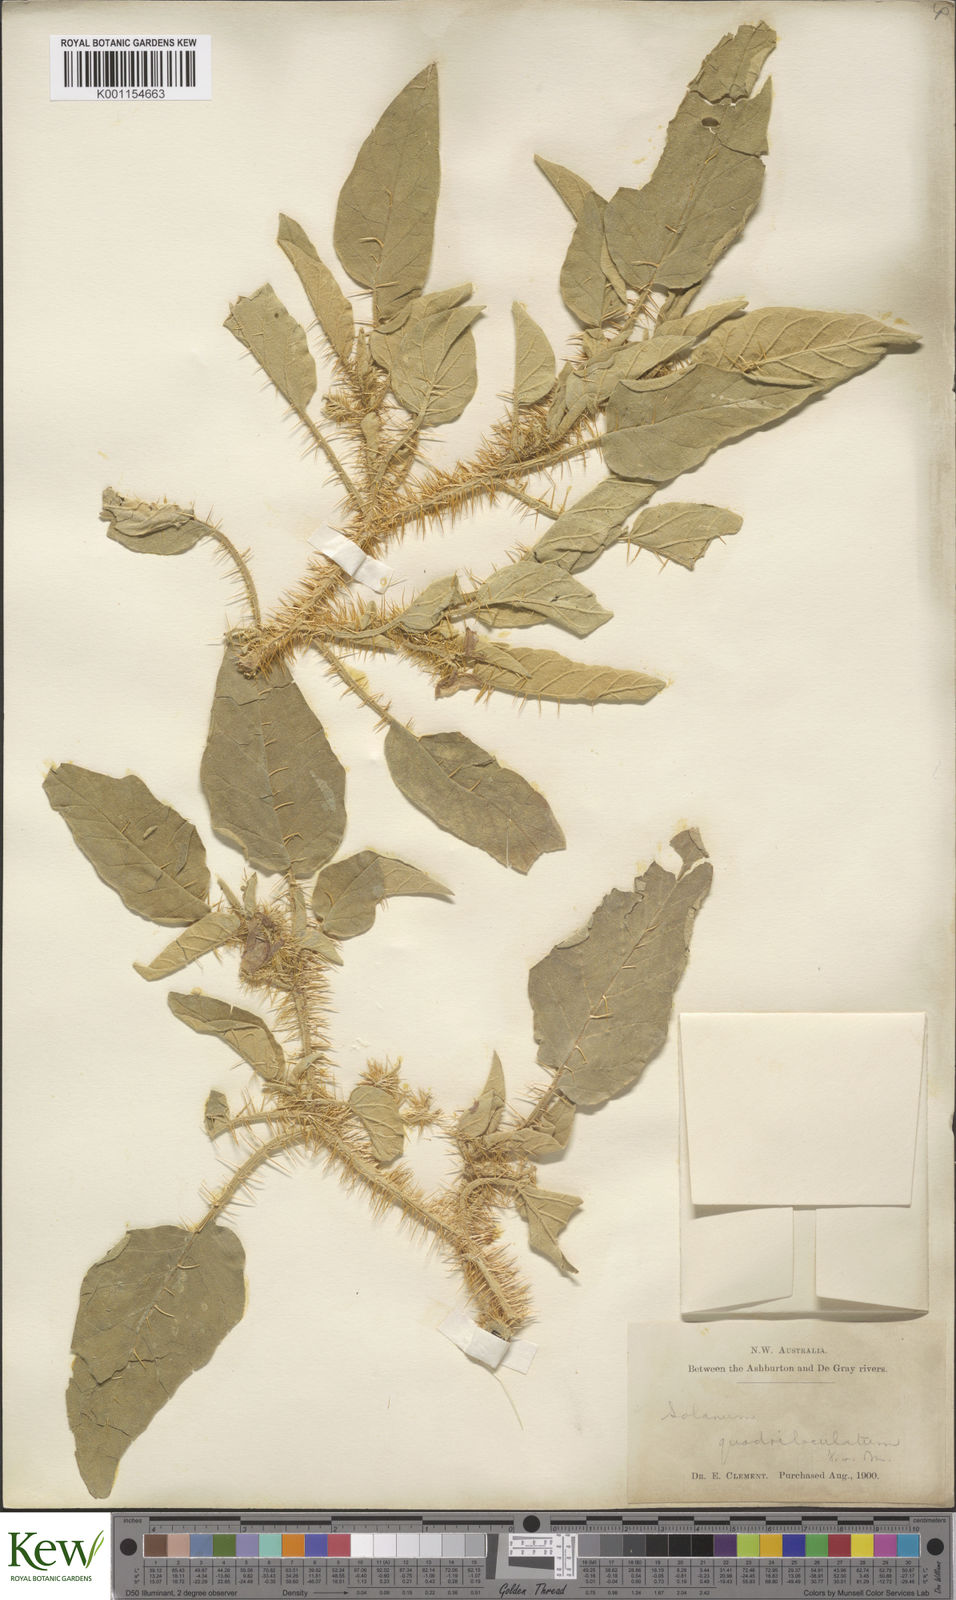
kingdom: Plantae
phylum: Tracheophyta
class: Magnoliopsida
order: Solanales
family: Solanaceae
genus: Solanum
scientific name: Solanum horridum
